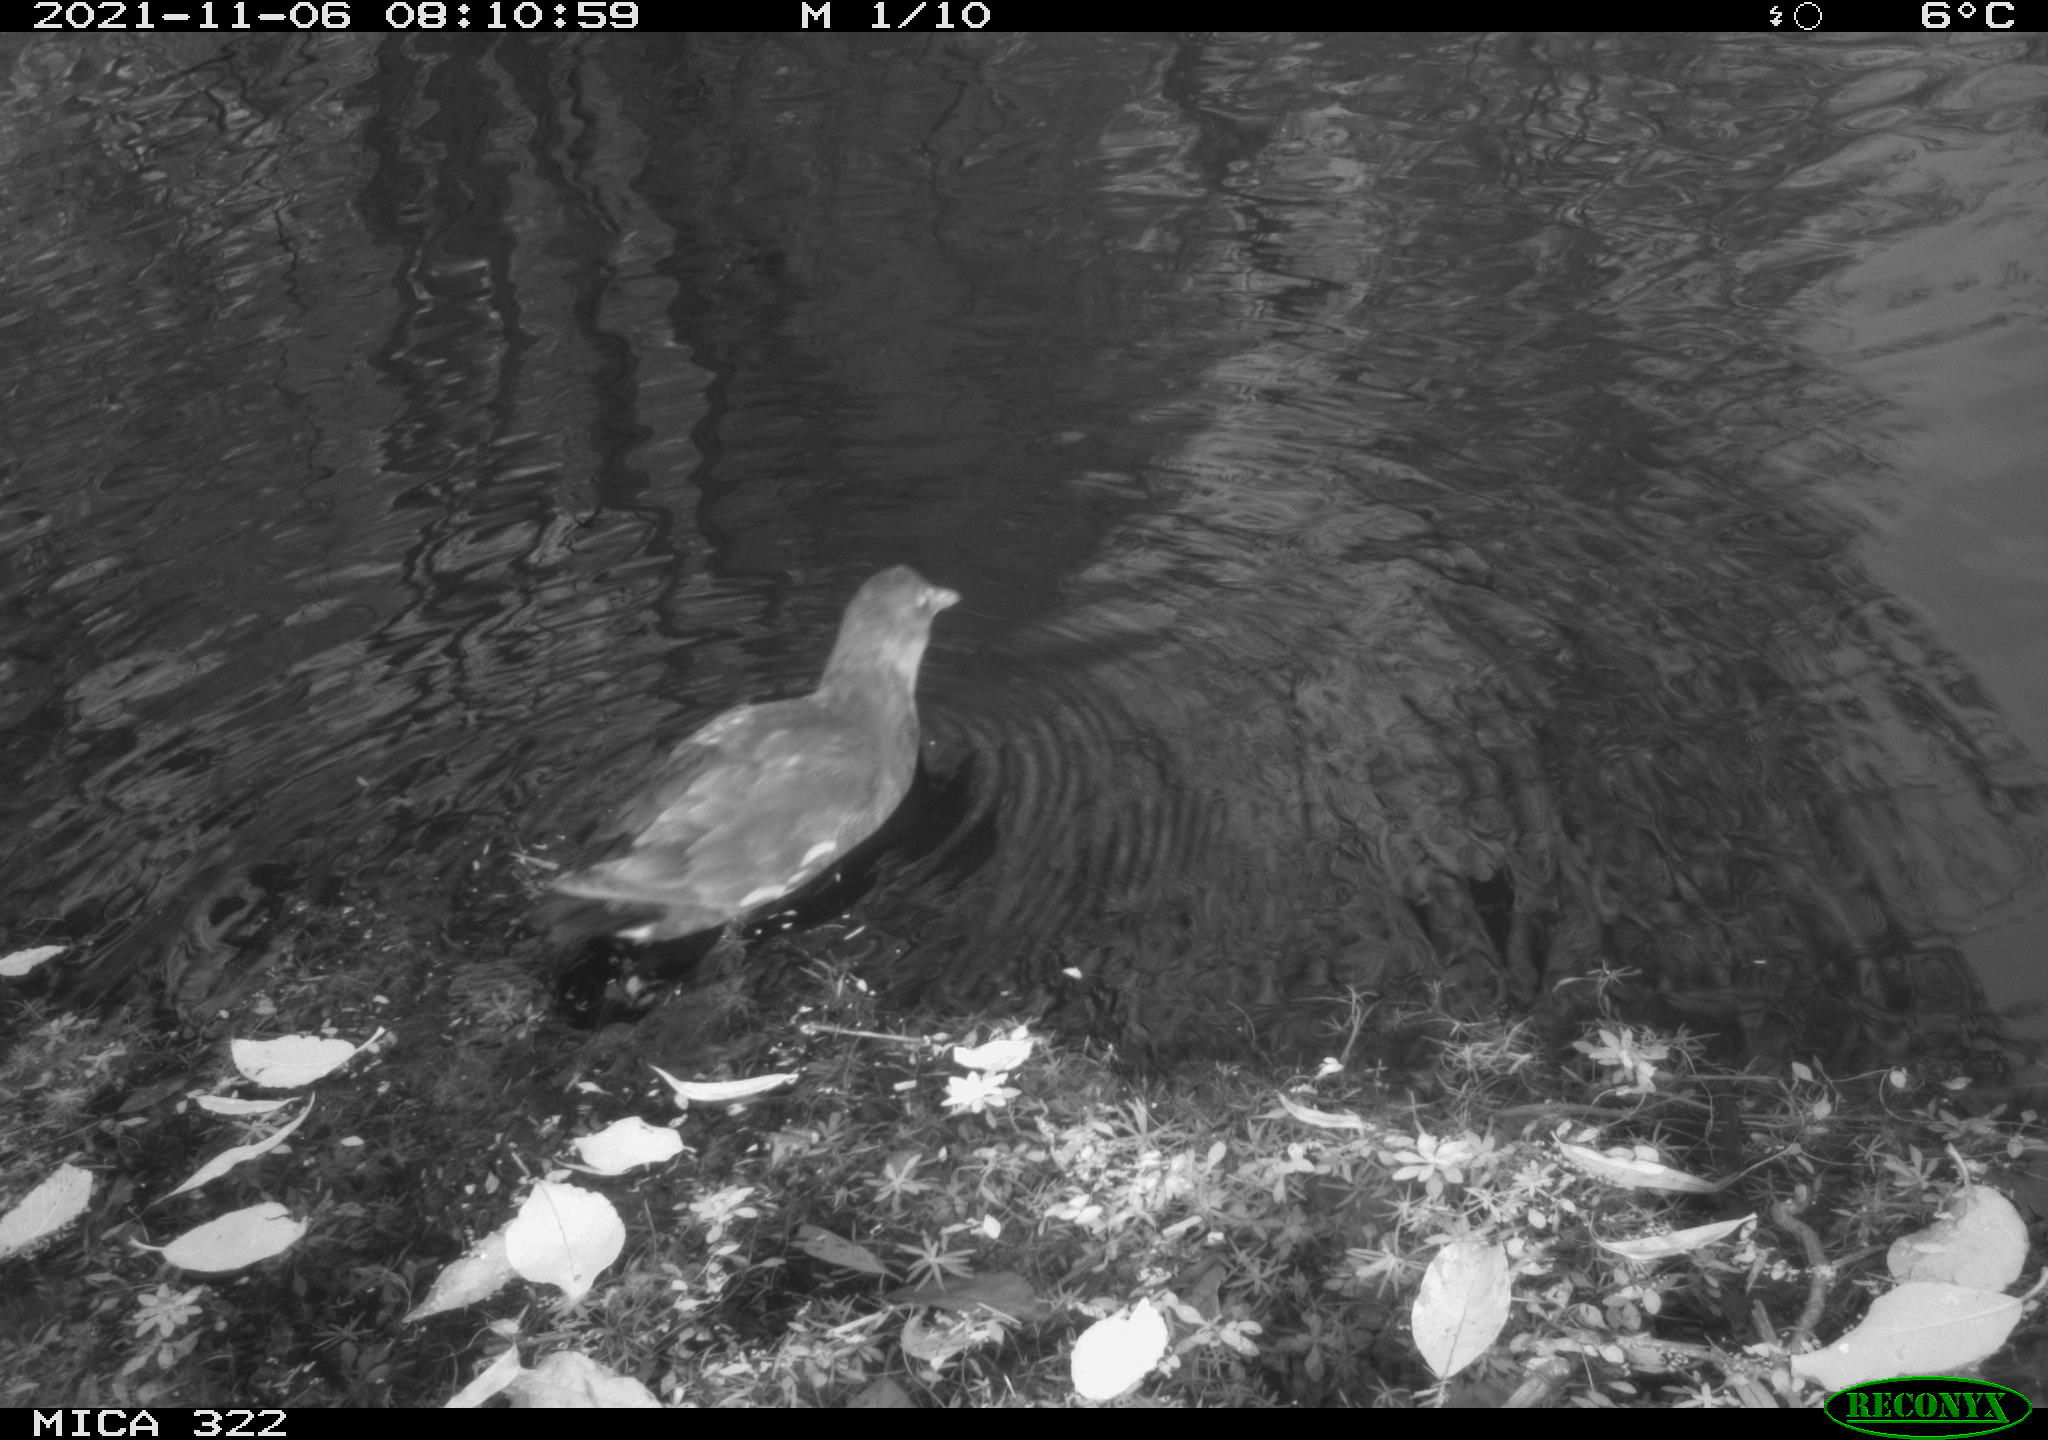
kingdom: Animalia
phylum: Chordata
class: Aves
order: Gruiformes
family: Rallidae
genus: Gallinula
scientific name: Gallinula chloropus
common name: Common moorhen
